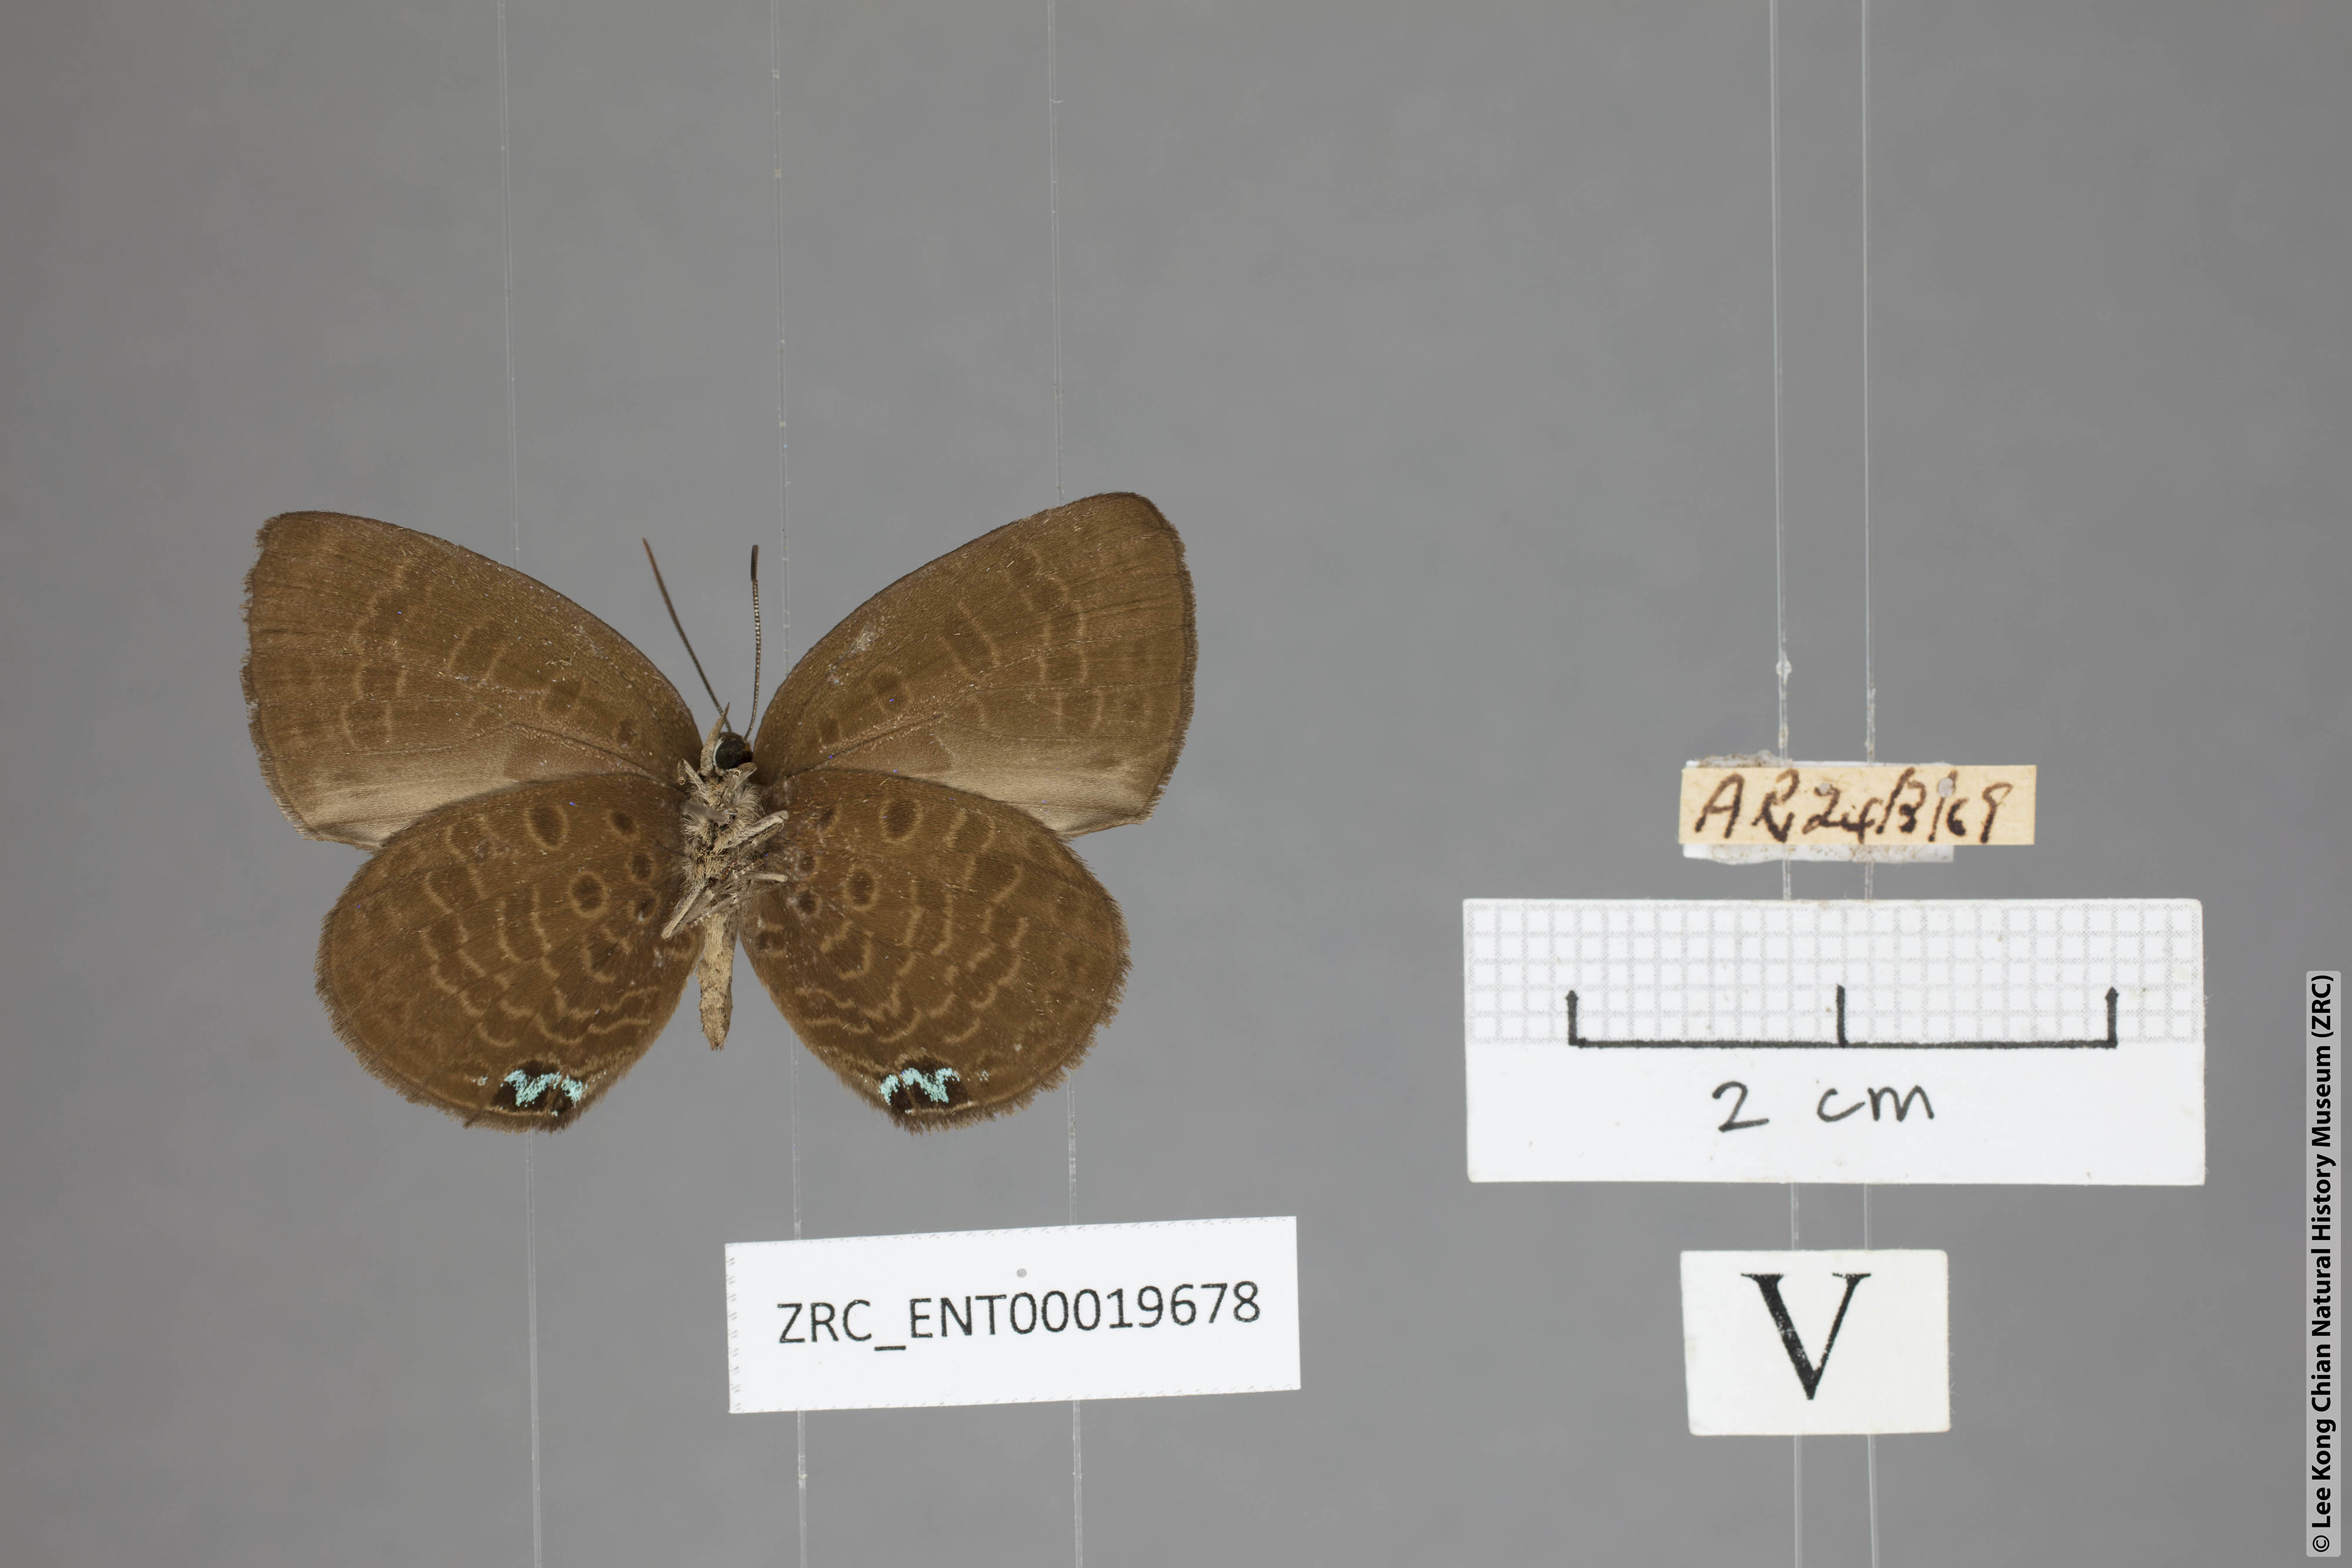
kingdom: Animalia
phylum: Arthropoda
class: Insecta
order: Lepidoptera
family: Lycaenidae
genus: Arhopala
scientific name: Arhopala moorei
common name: Moore's oakblue
